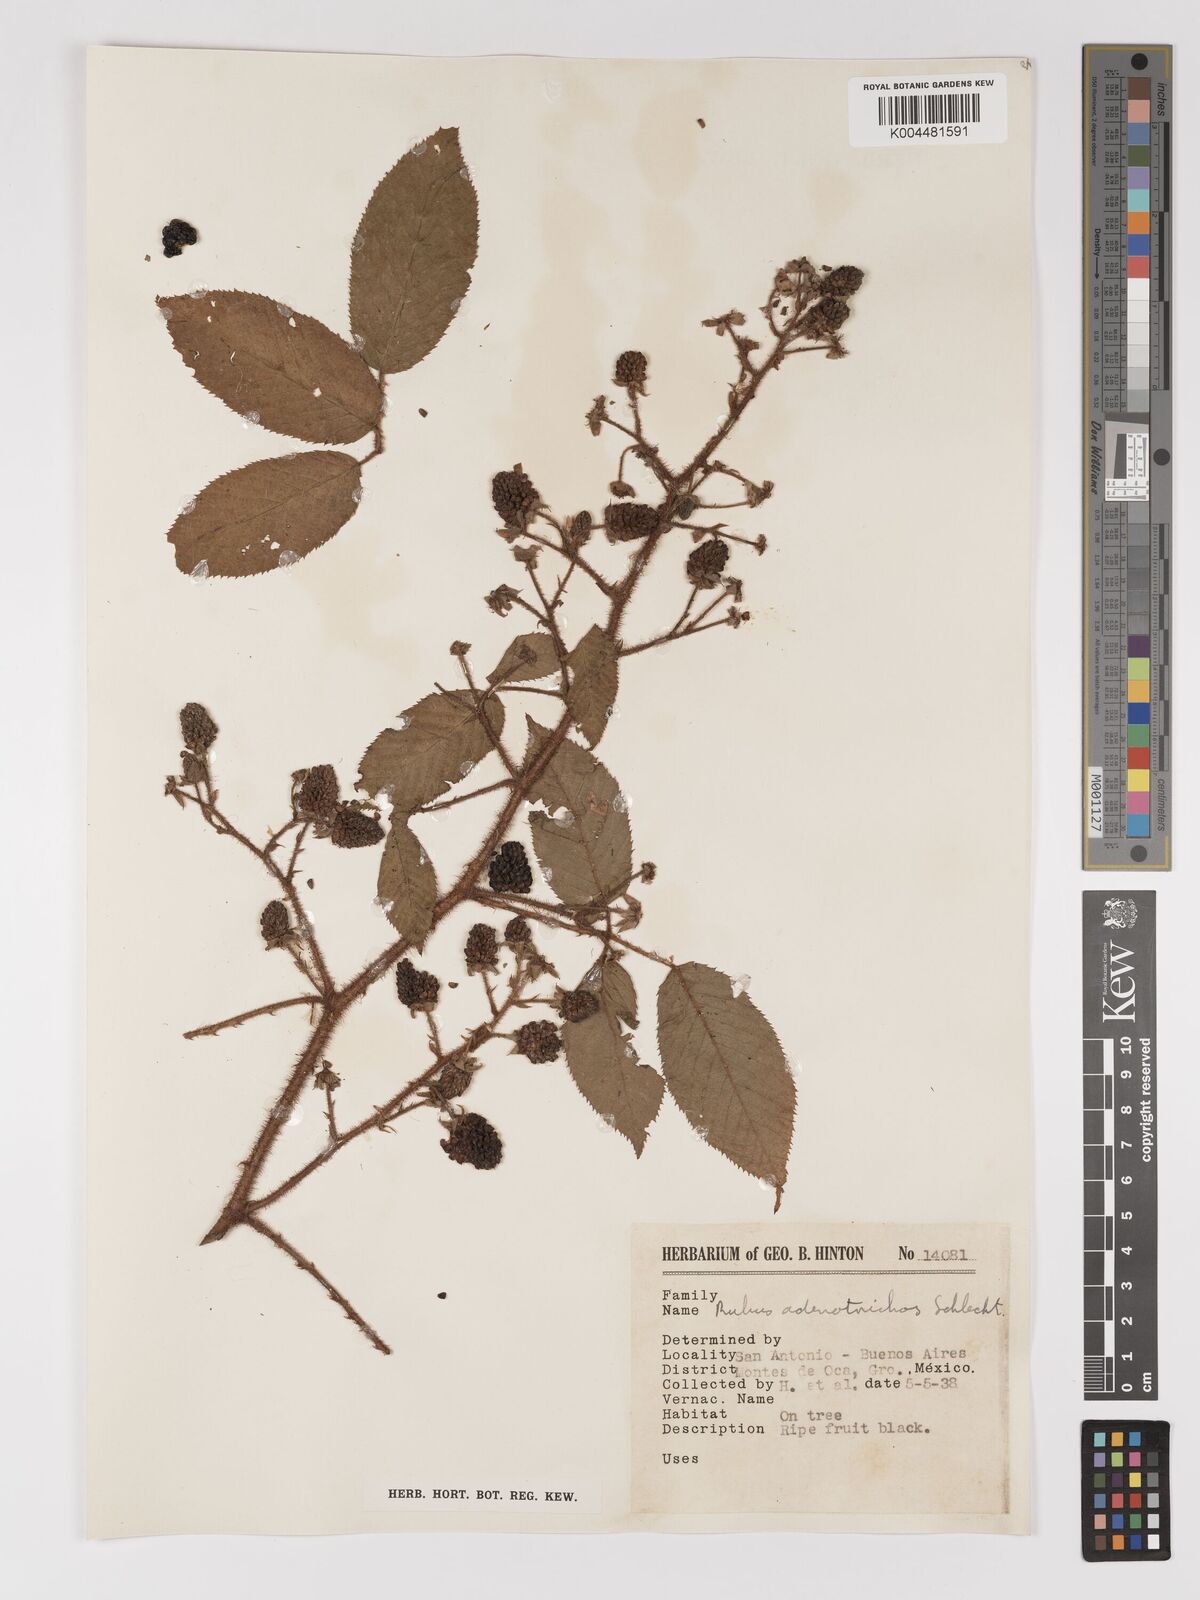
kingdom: Plantae
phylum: Tracheophyta
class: Magnoliopsida
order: Rosales
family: Rosaceae
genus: Rubus
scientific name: Rubus adenotrichos
